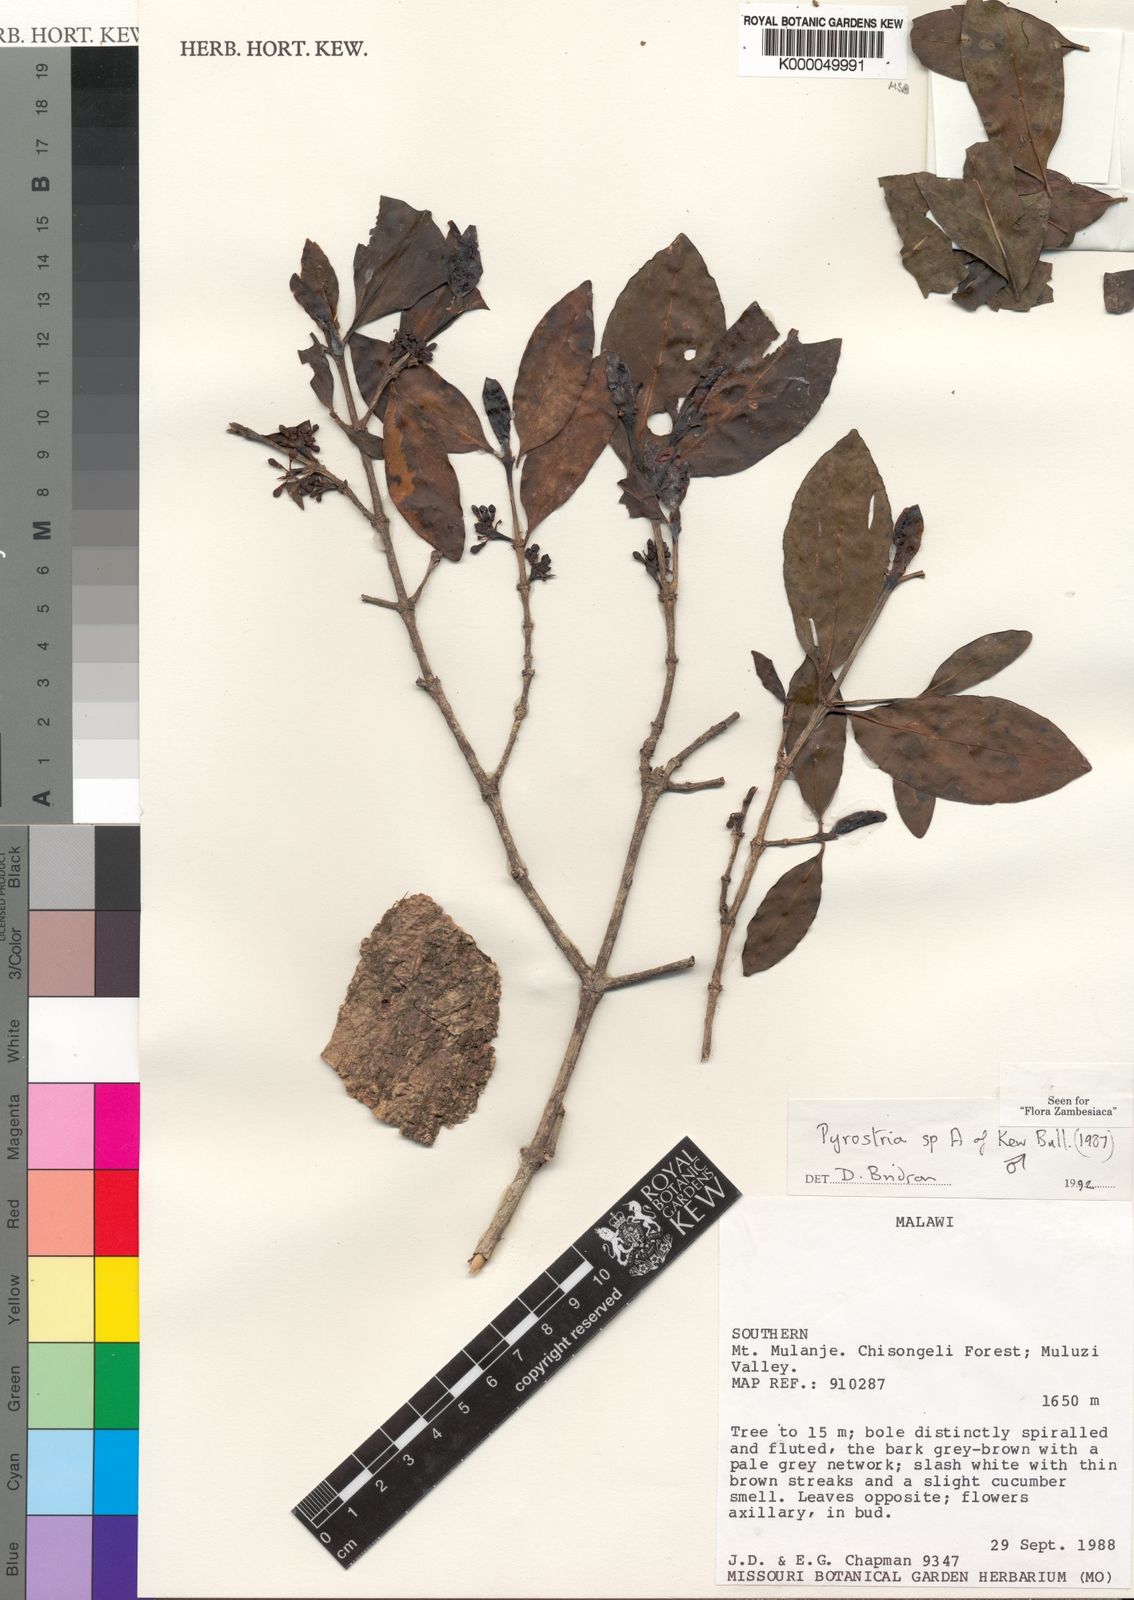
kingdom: Plantae
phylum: Tracheophyta
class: Magnoliopsida
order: Gentianales
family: Rubiaceae
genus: Pyrostria
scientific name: Pyrostria chapmanii
